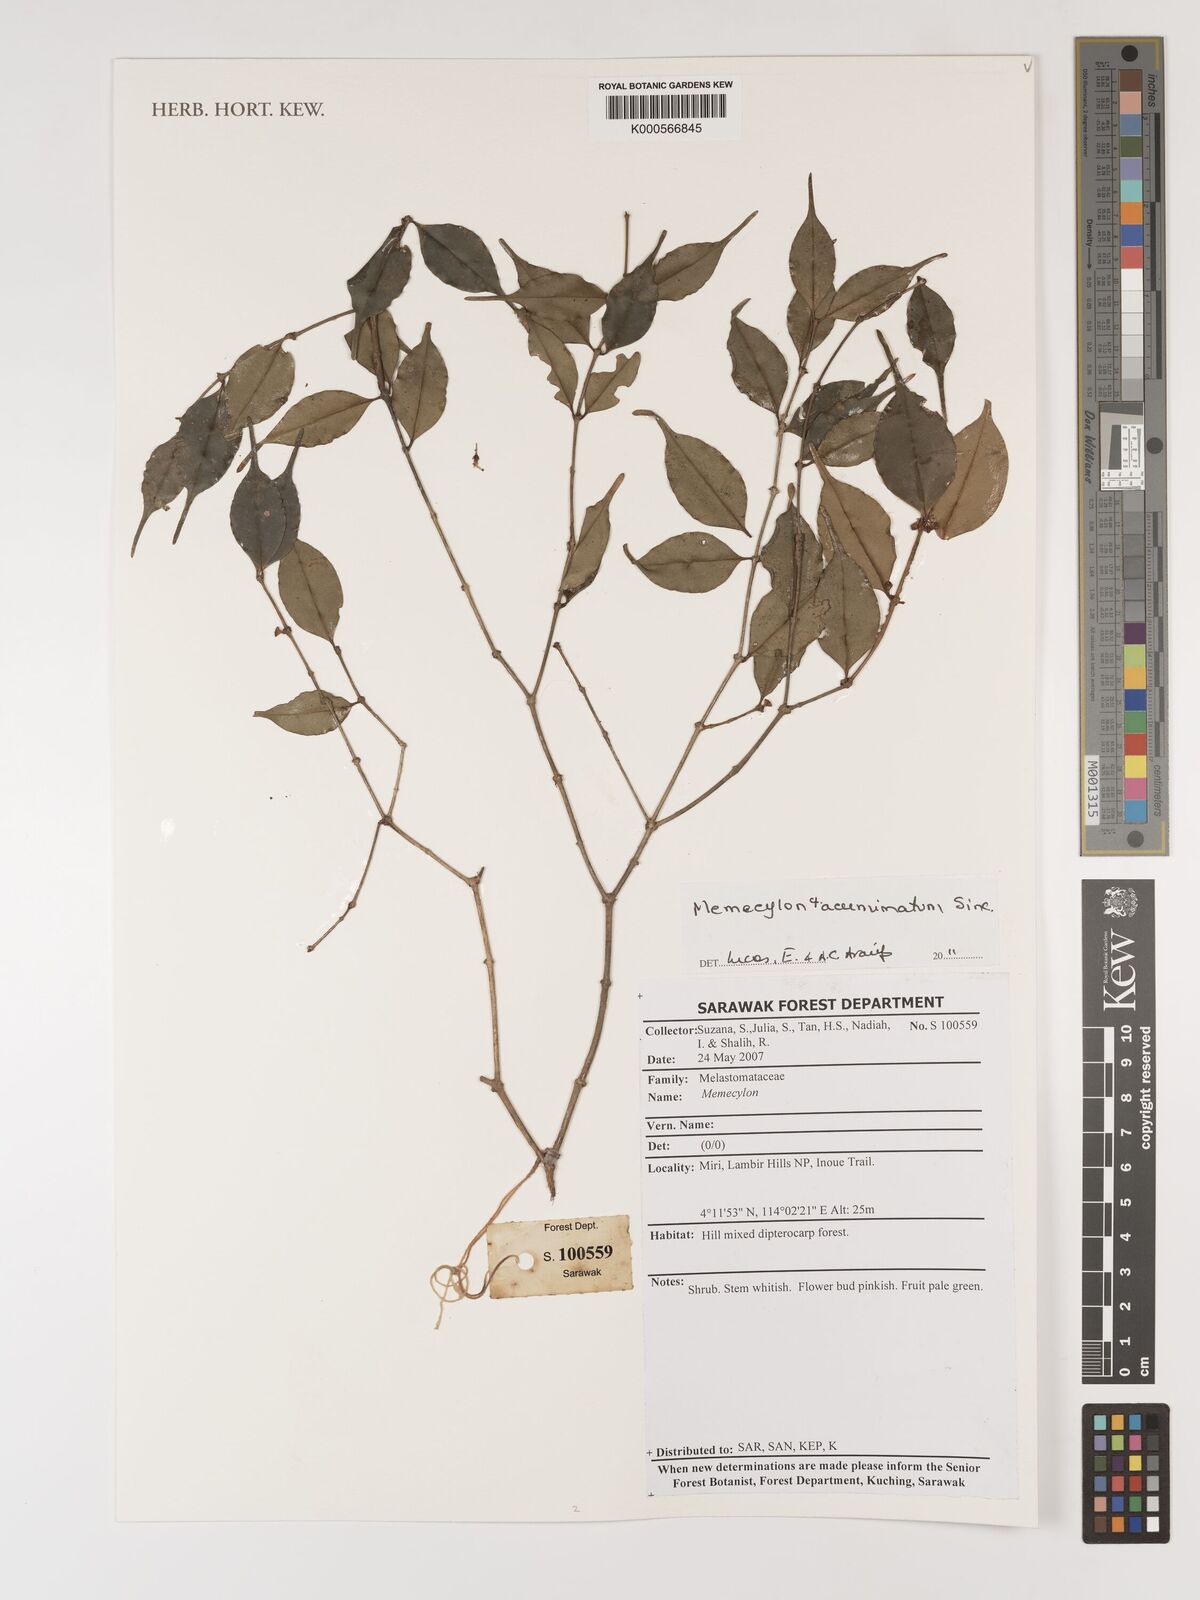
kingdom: Plantae
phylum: Tracheophyta
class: Magnoliopsida
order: Myrtales
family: Melastomataceae
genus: Memecylon
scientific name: Memecylon
